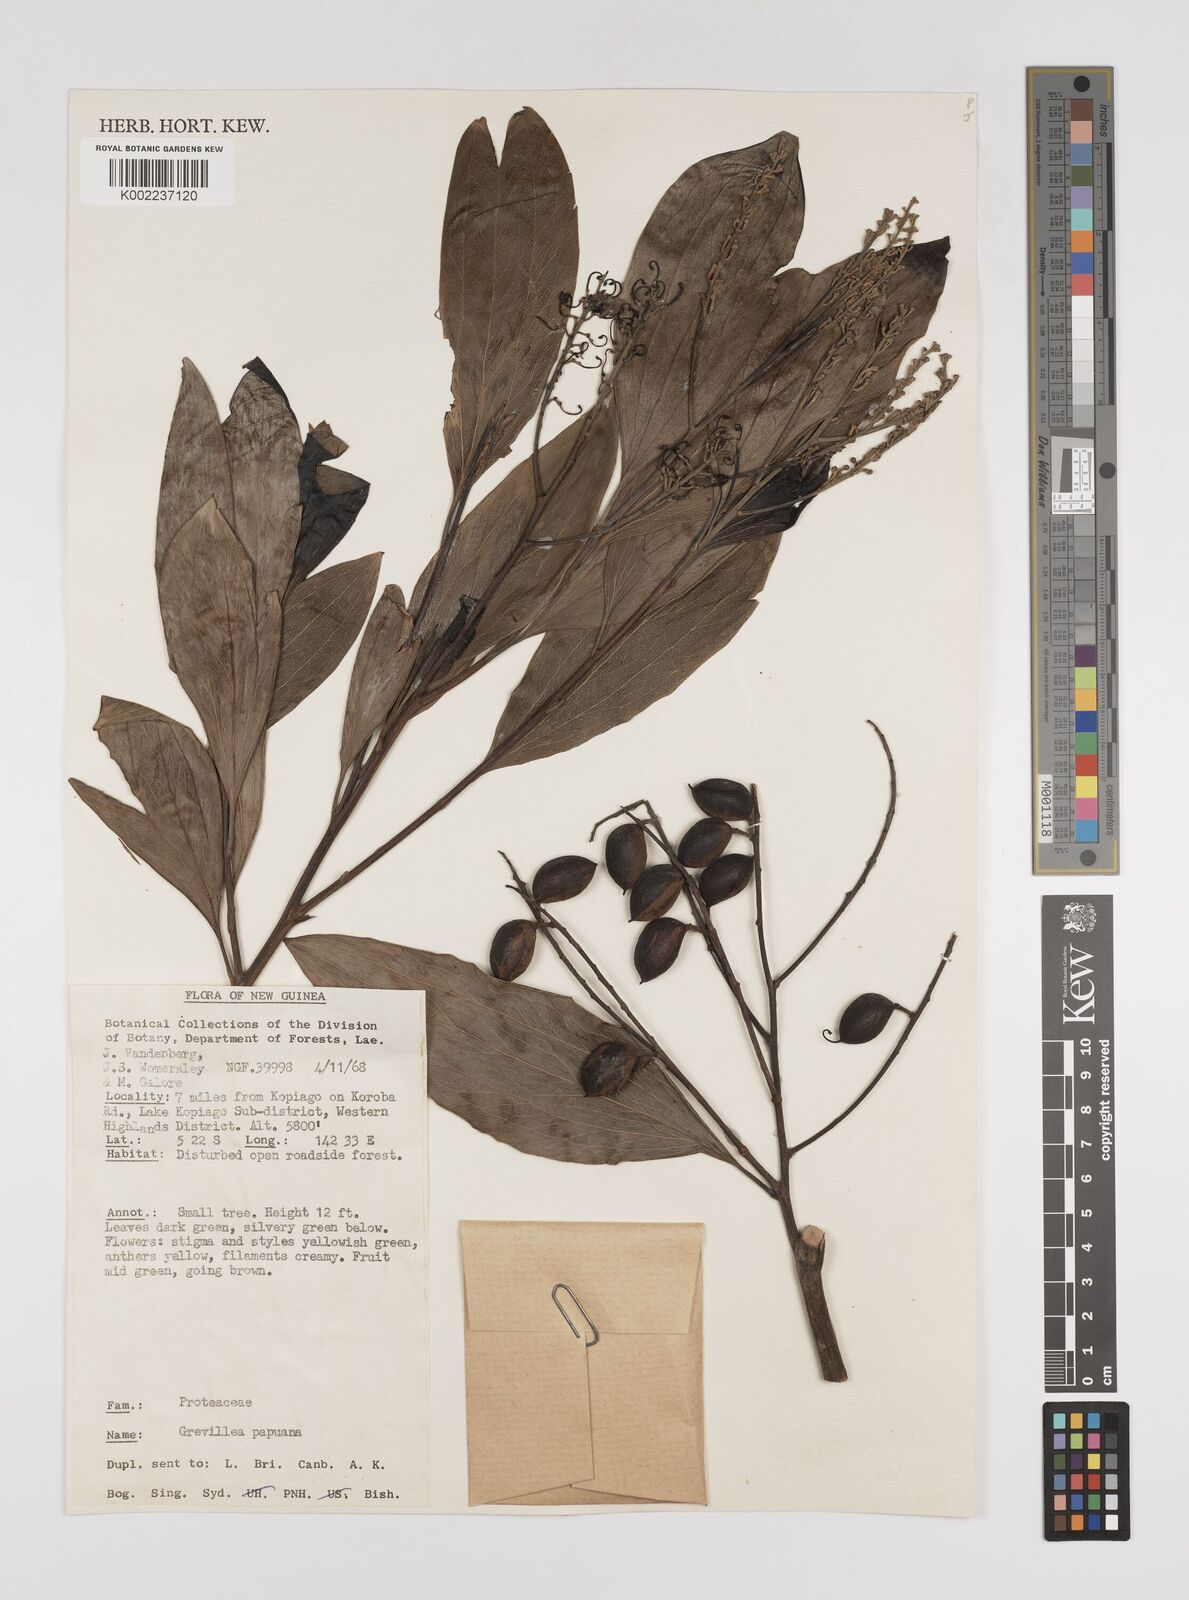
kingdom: Plantae
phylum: Tracheophyta
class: Magnoliopsida
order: Proteales
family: Proteaceae
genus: Grevillea
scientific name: Grevillea papuana
